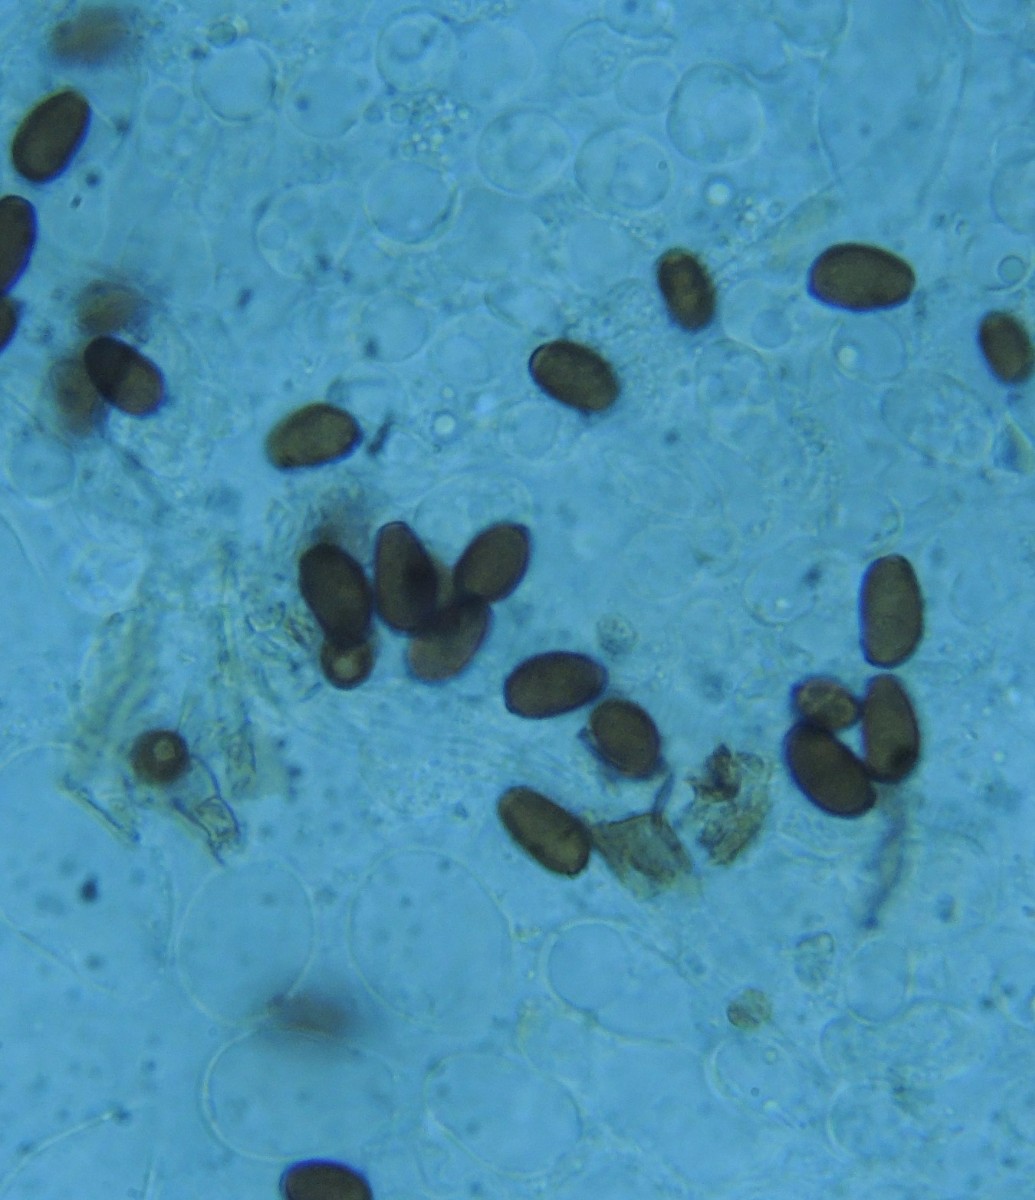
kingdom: Fungi
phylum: Basidiomycota
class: Agaricomycetes
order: Agaricales
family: Psathyrellaceae
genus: Psathyrella
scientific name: Psathyrella
